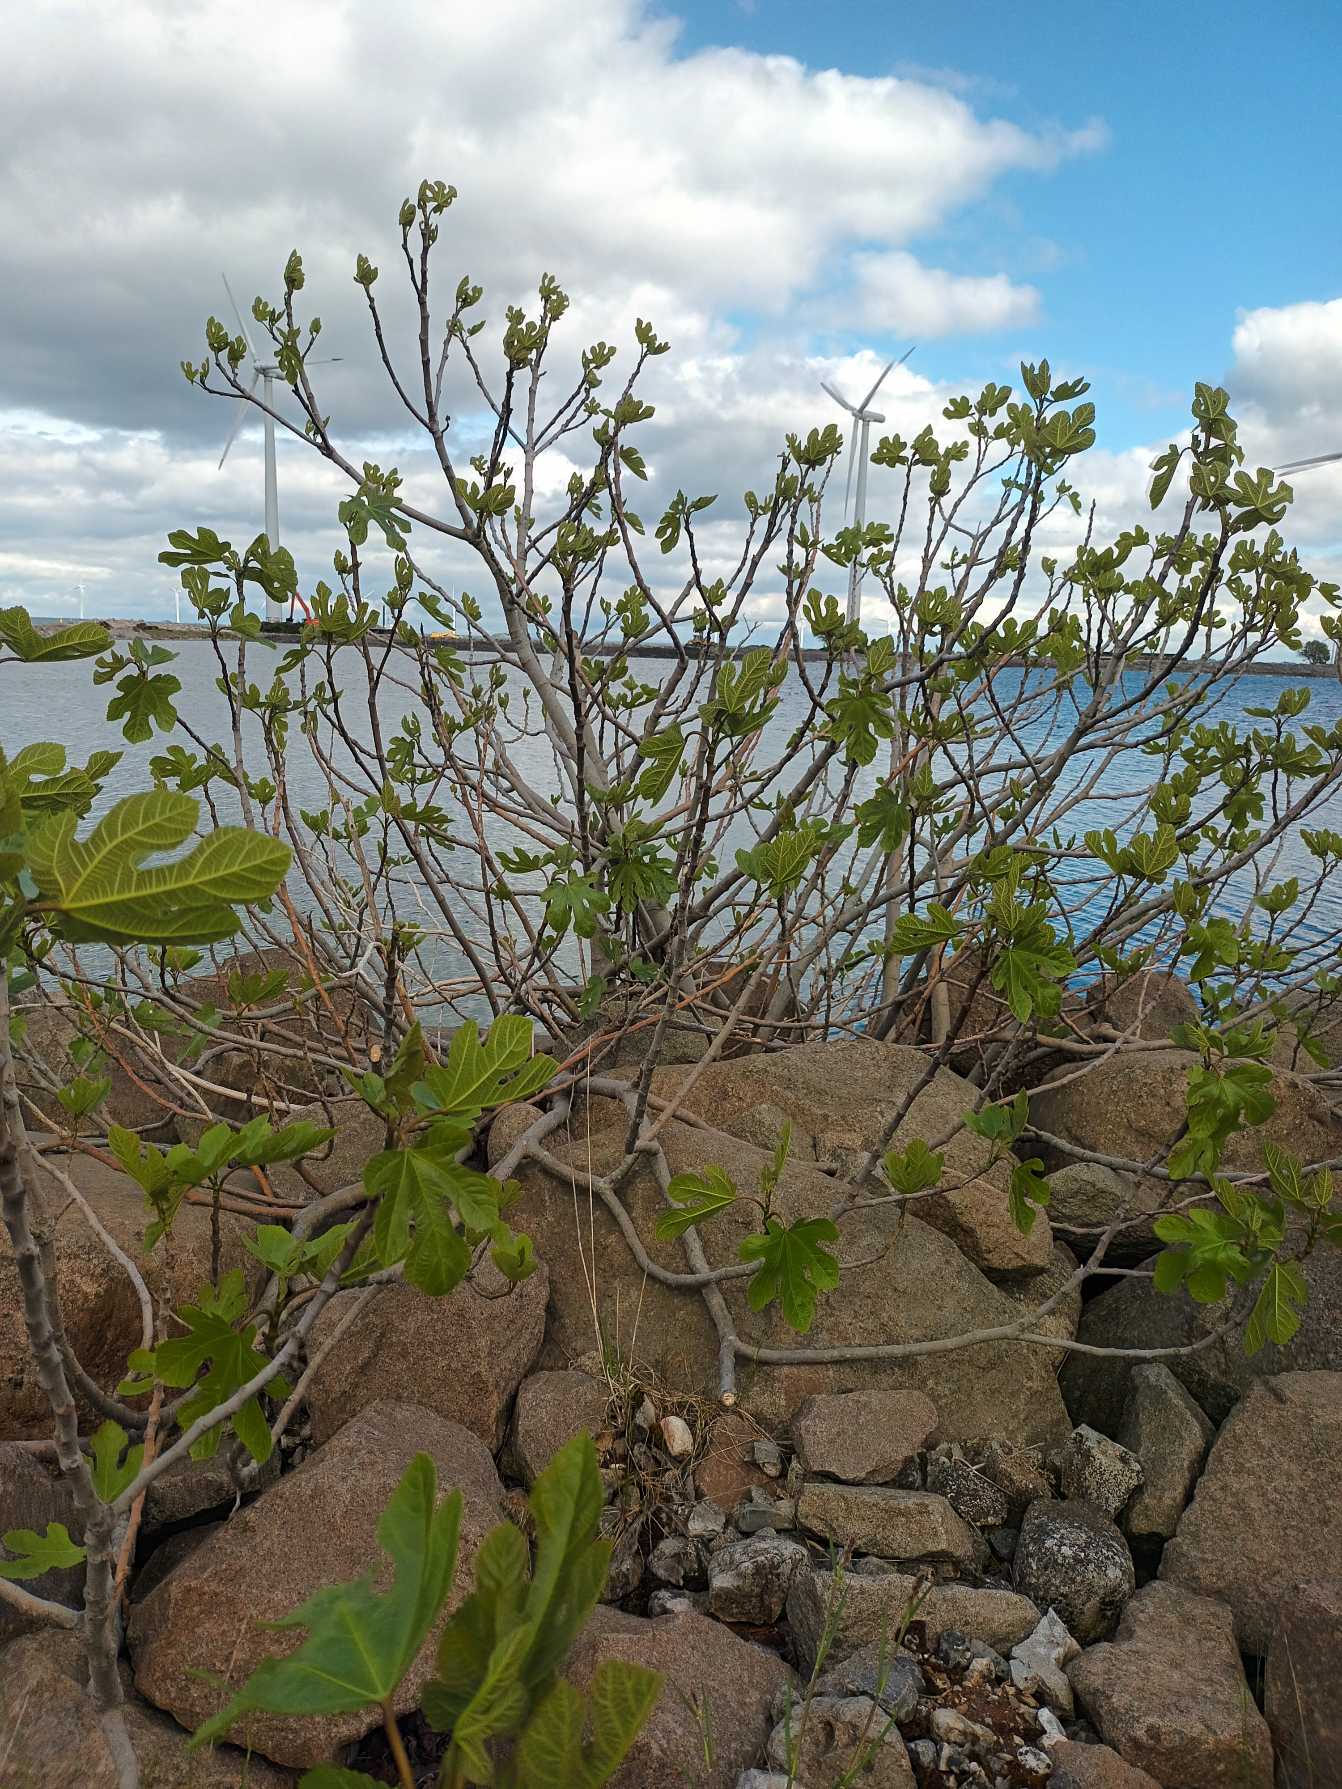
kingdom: Plantae
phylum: Tracheophyta
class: Magnoliopsida
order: Rosales
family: Moraceae
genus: Ficus
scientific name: Ficus carica
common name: Figen
